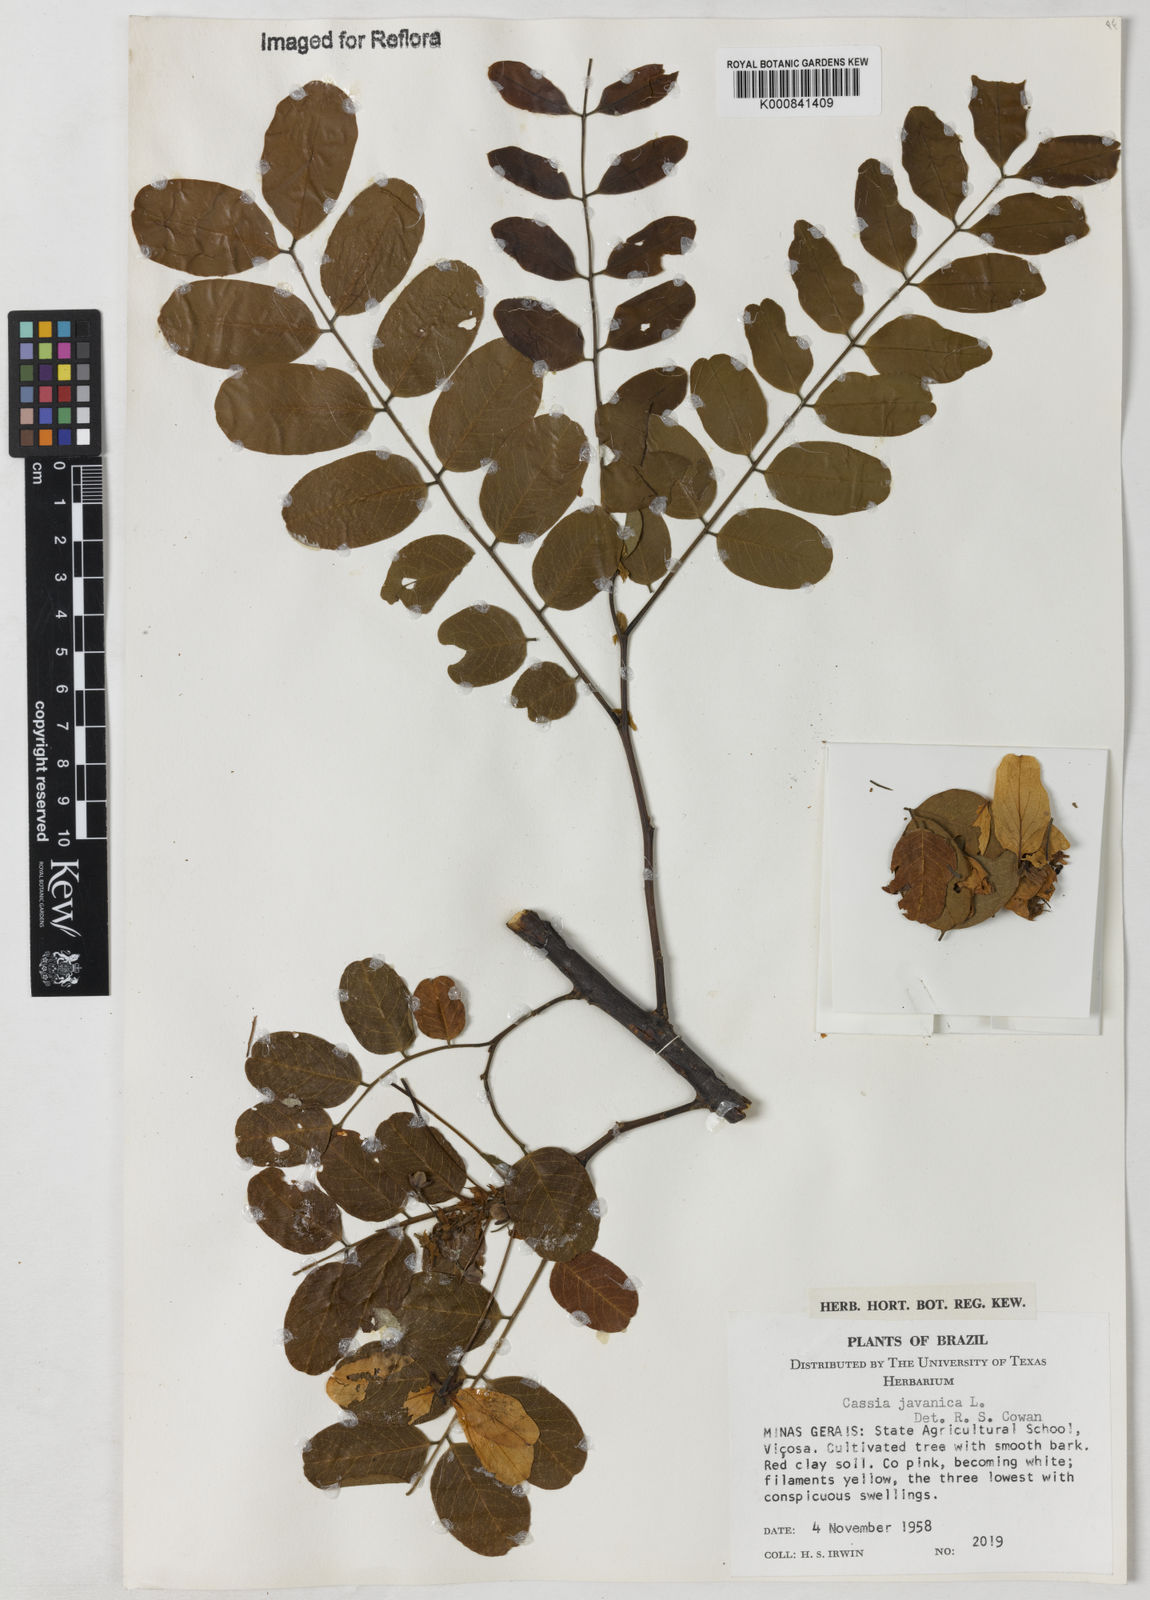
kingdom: Plantae
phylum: Tracheophyta
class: Magnoliopsida
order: Fabales
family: Fabaceae
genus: Cassia
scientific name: Cassia javanica
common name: Apple blossom
